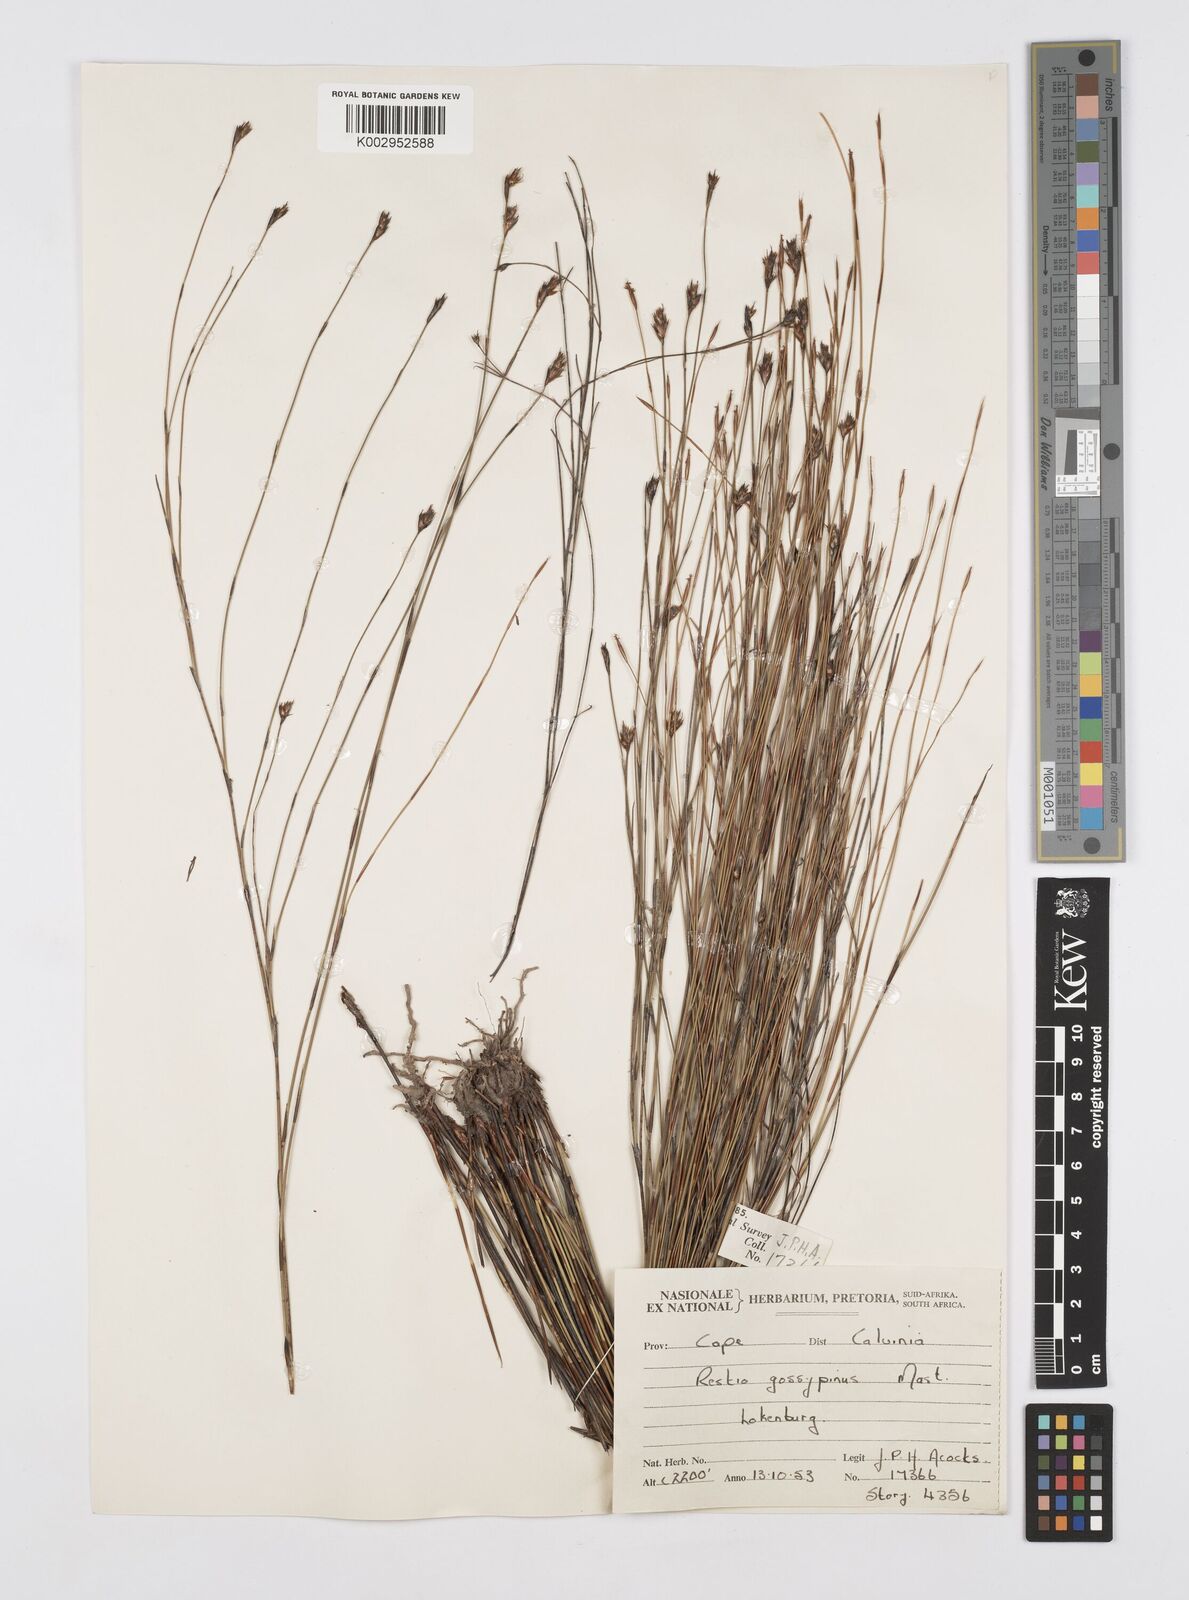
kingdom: Plantae
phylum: Tracheophyta
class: Liliopsida
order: Poales
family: Restionaceae
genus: Restio
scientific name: Restio gossypinus
